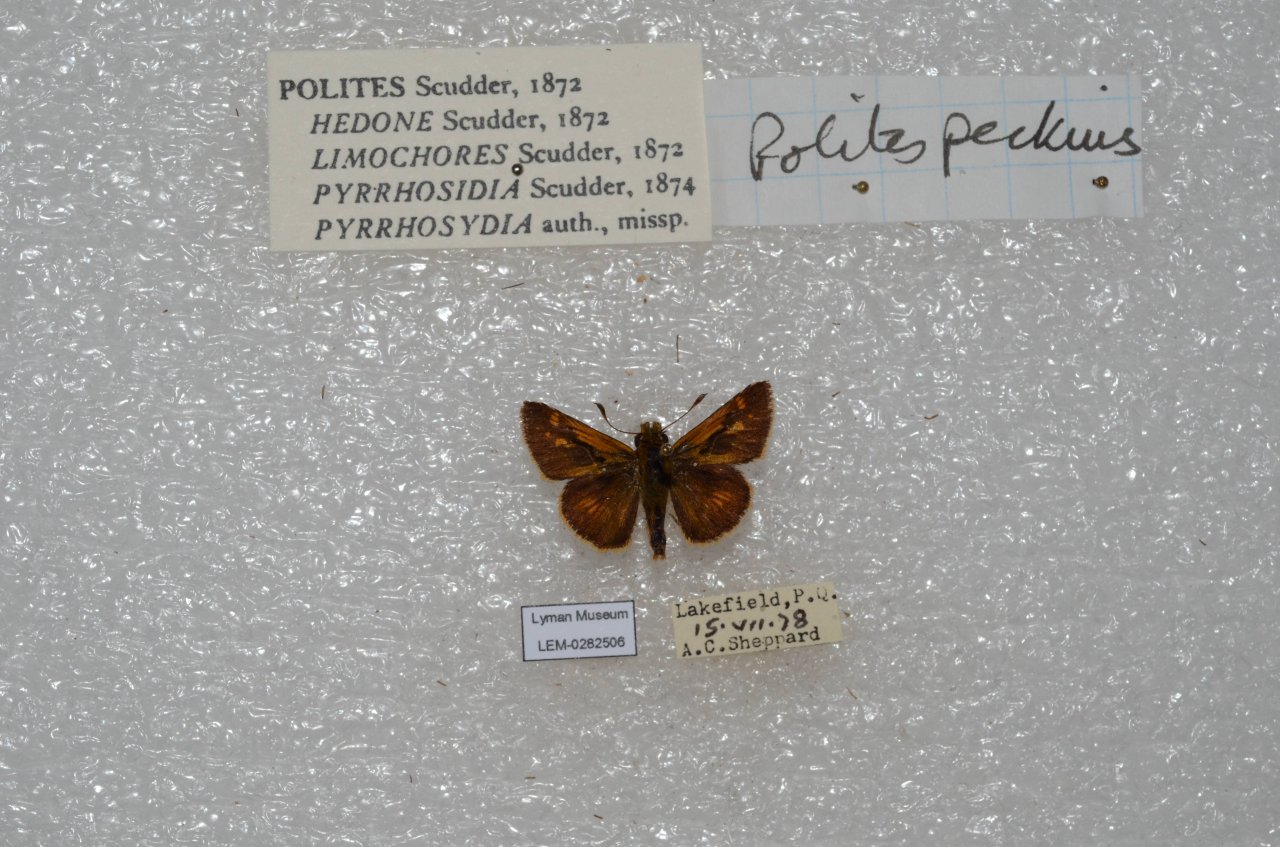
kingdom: Animalia
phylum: Arthropoda
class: Insecta
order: Lepidoptera
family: Hesperiidae
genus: Polites
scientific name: Polites coras
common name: Peck's Skipper
